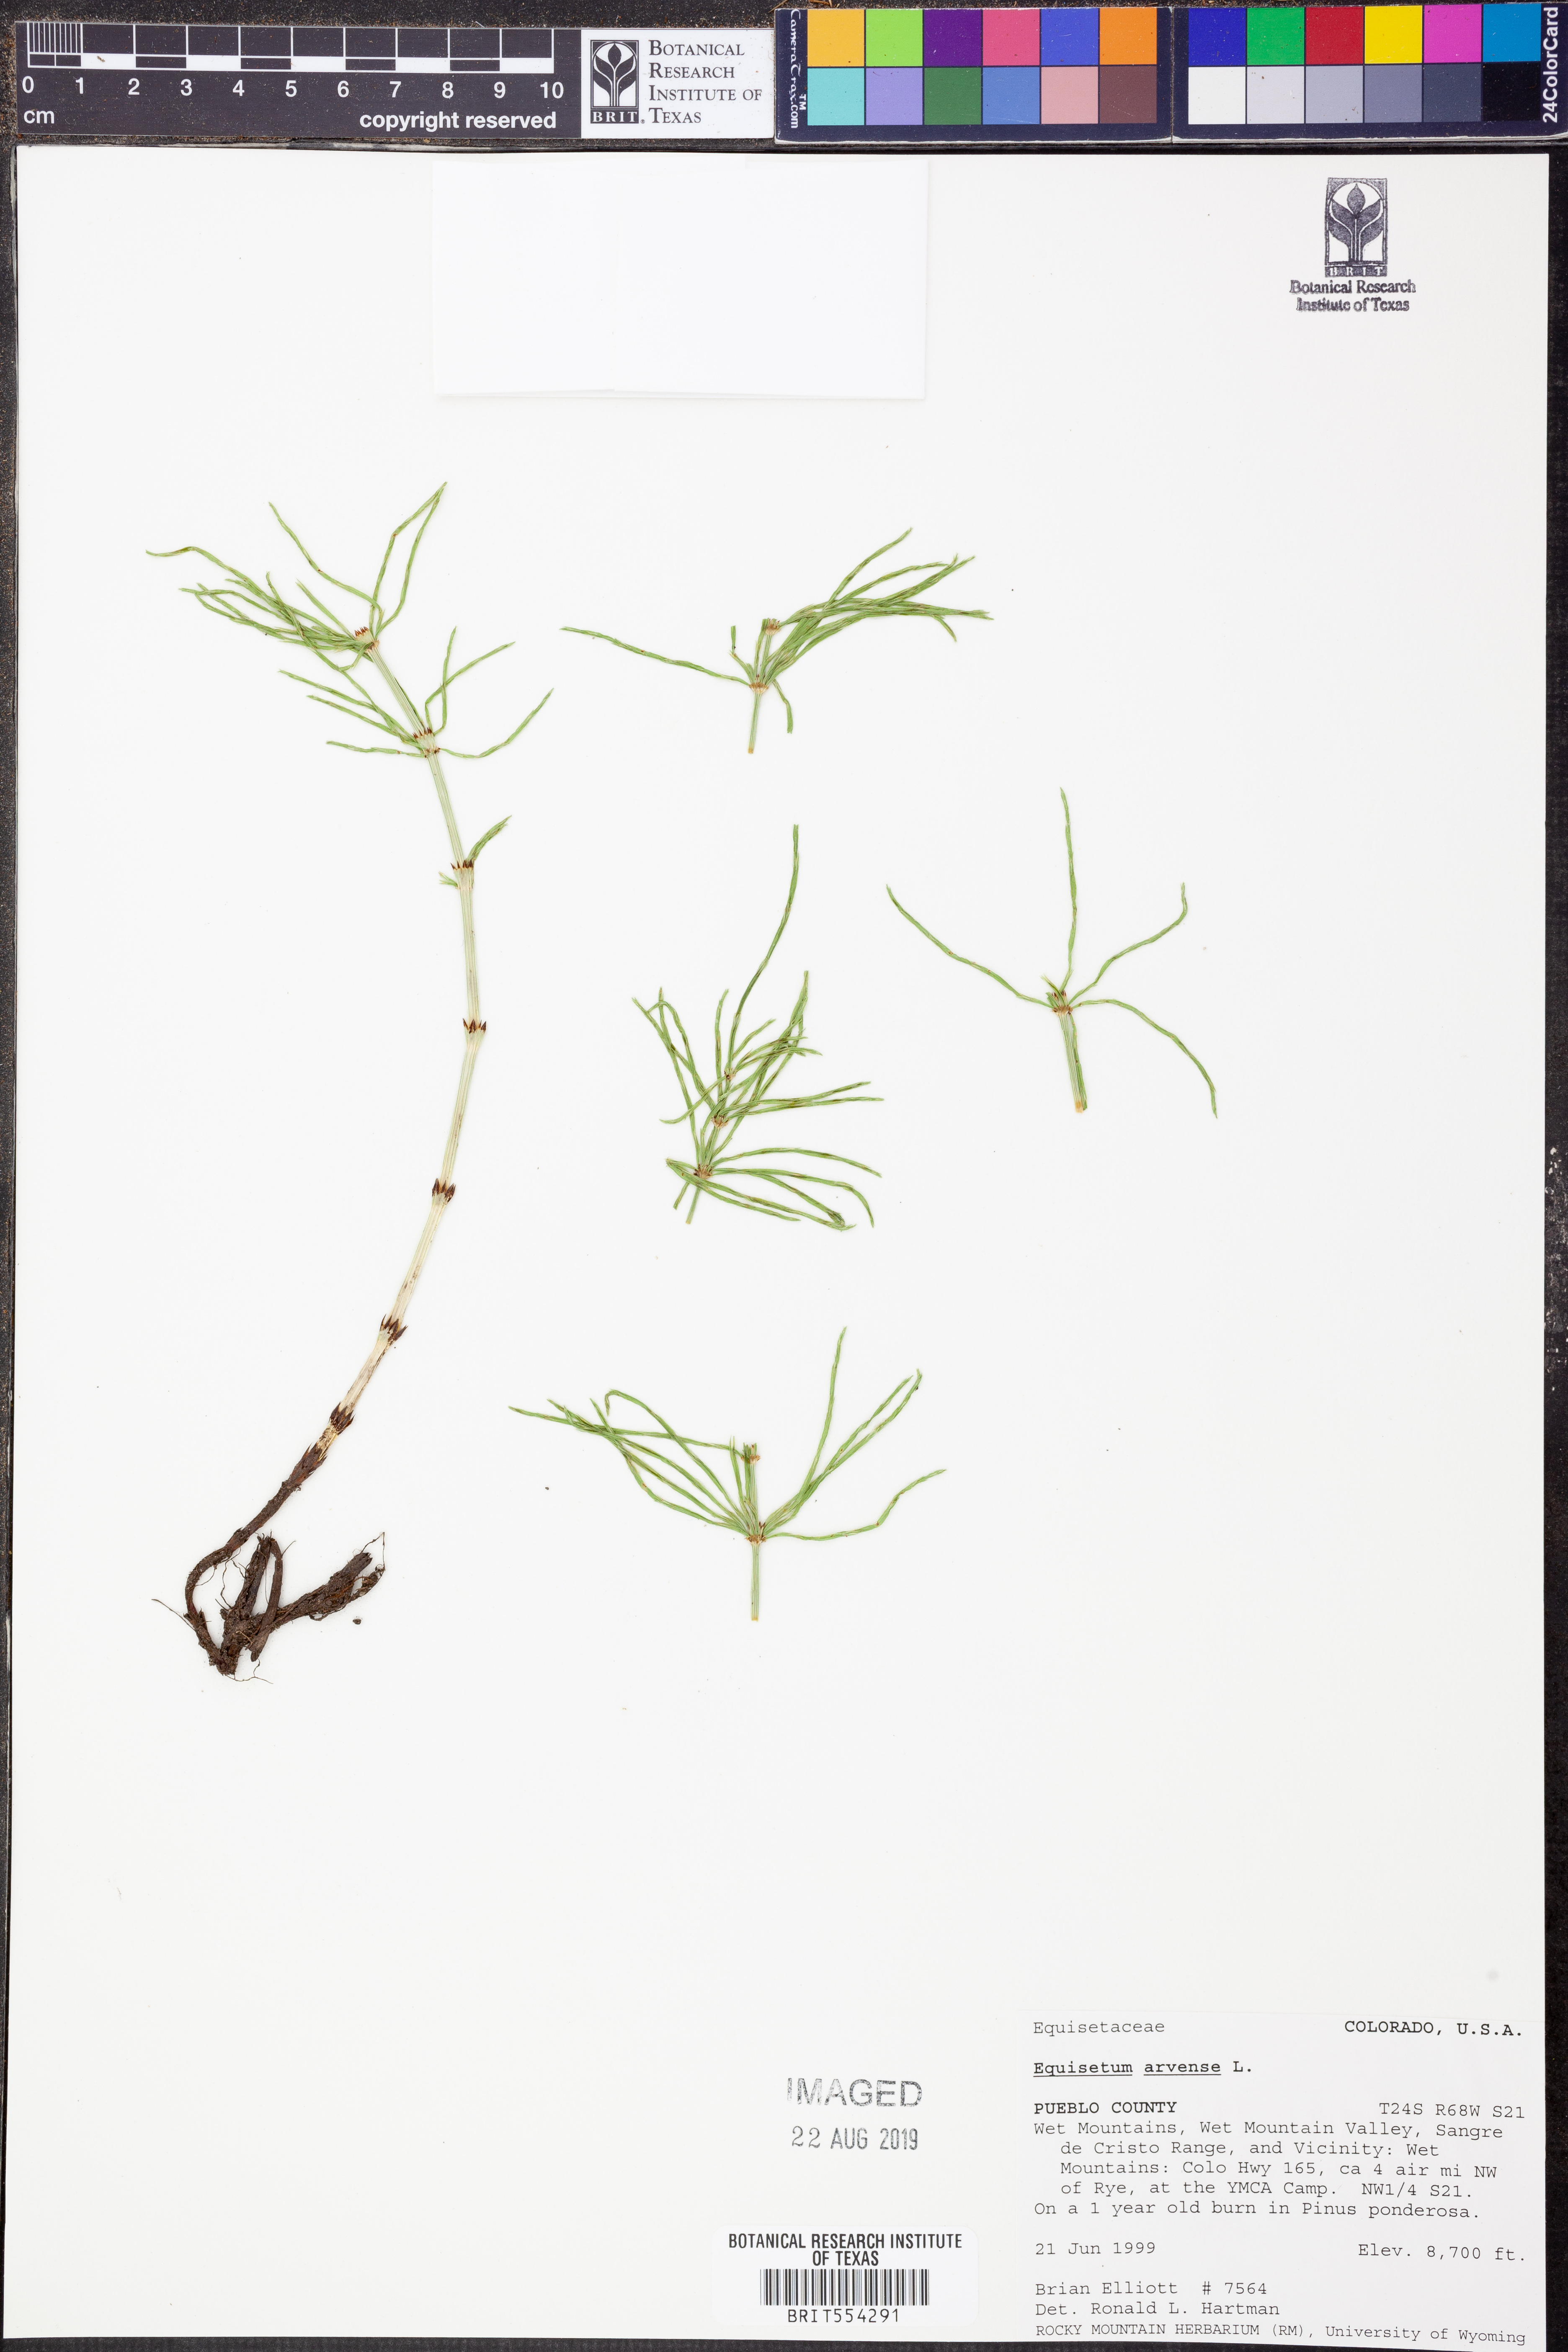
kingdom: Plantae
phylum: Tracheophyta
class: Polypodiopsida
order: Equisetales
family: Equisetaceae
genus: Equisetum
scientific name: Equisetum arvense
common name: Field horsetail
